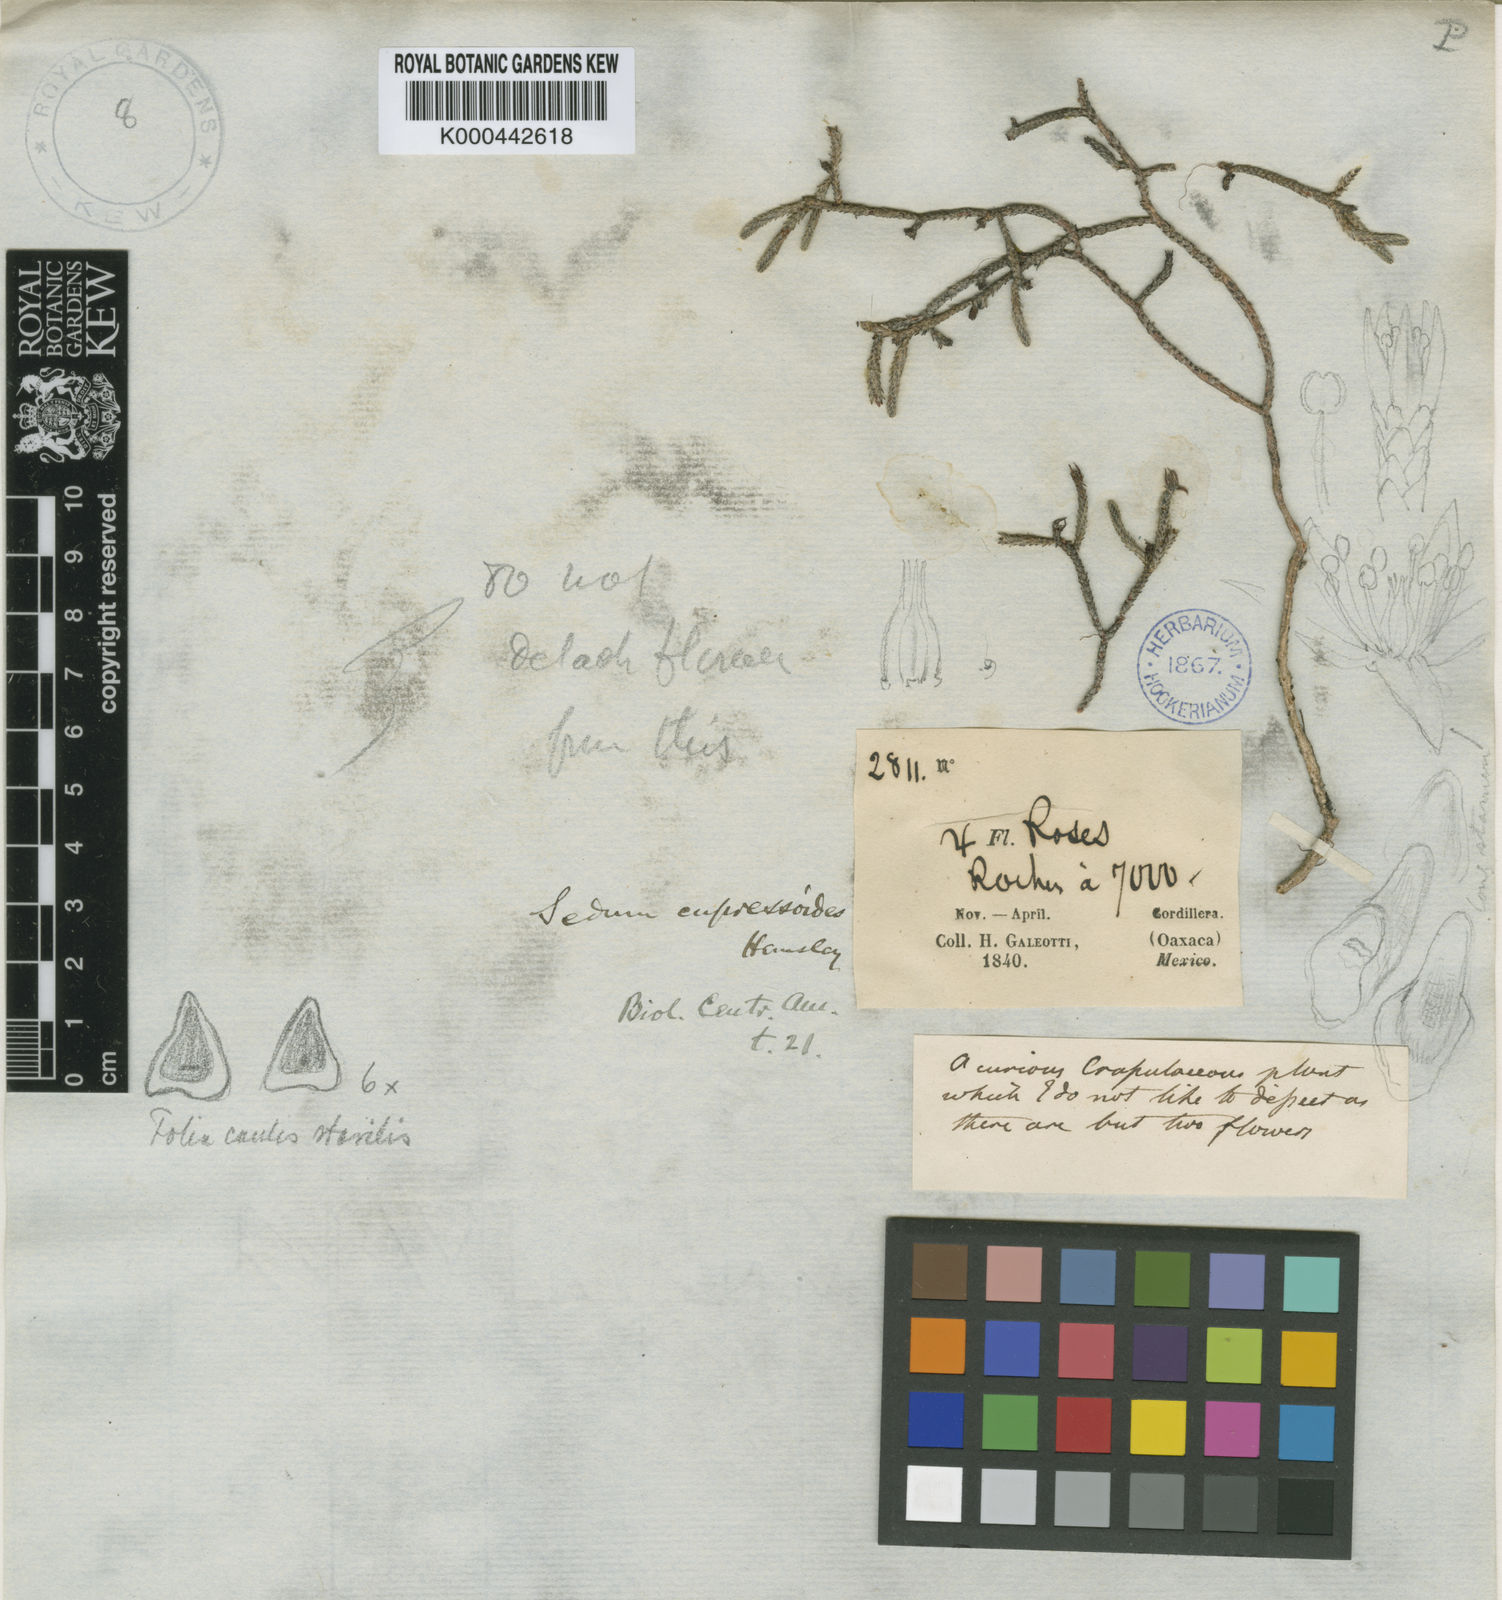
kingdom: Plantae
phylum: Tracheophyta
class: Magnoliopsida
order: Saxifragales
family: Crassulaceae
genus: Sedum
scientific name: Sedum cupressoides
